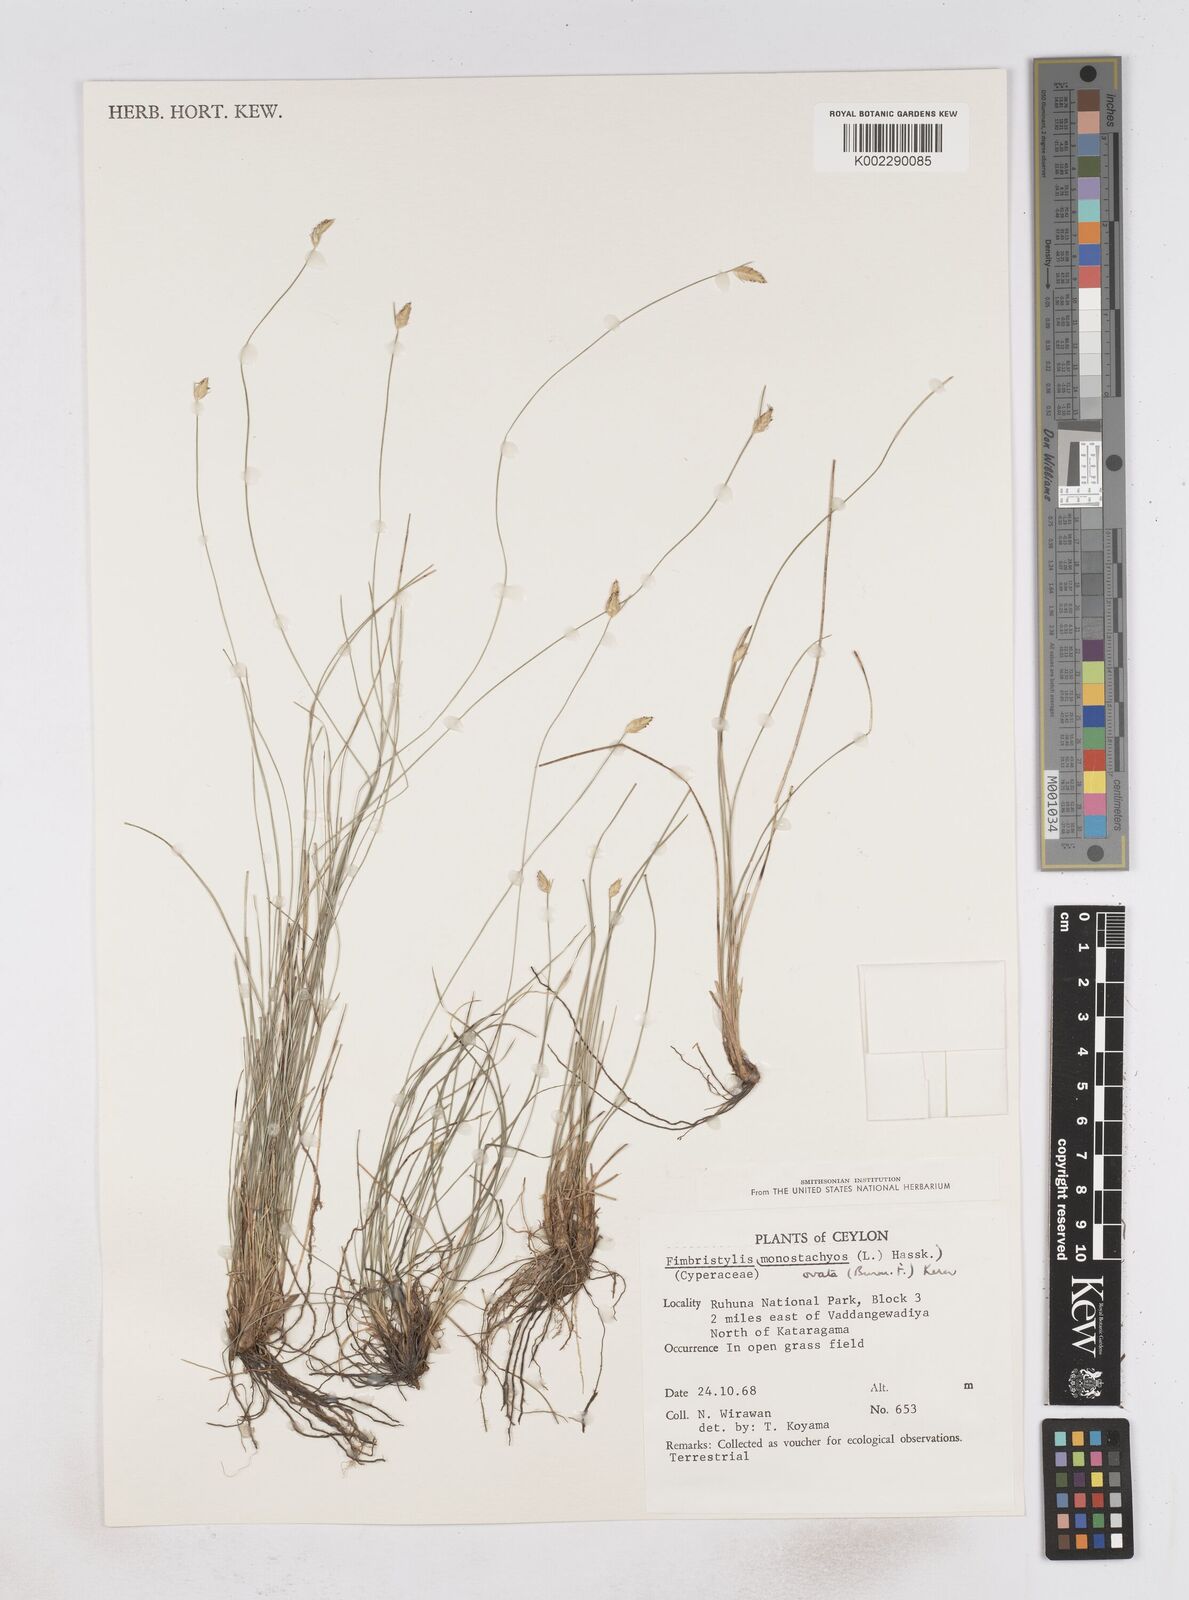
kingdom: Plantae
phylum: Tracheophyta
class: Liliopsida
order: Poales
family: Cyperaceae
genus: Abildgaardia
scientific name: Abildgaardia ovata
